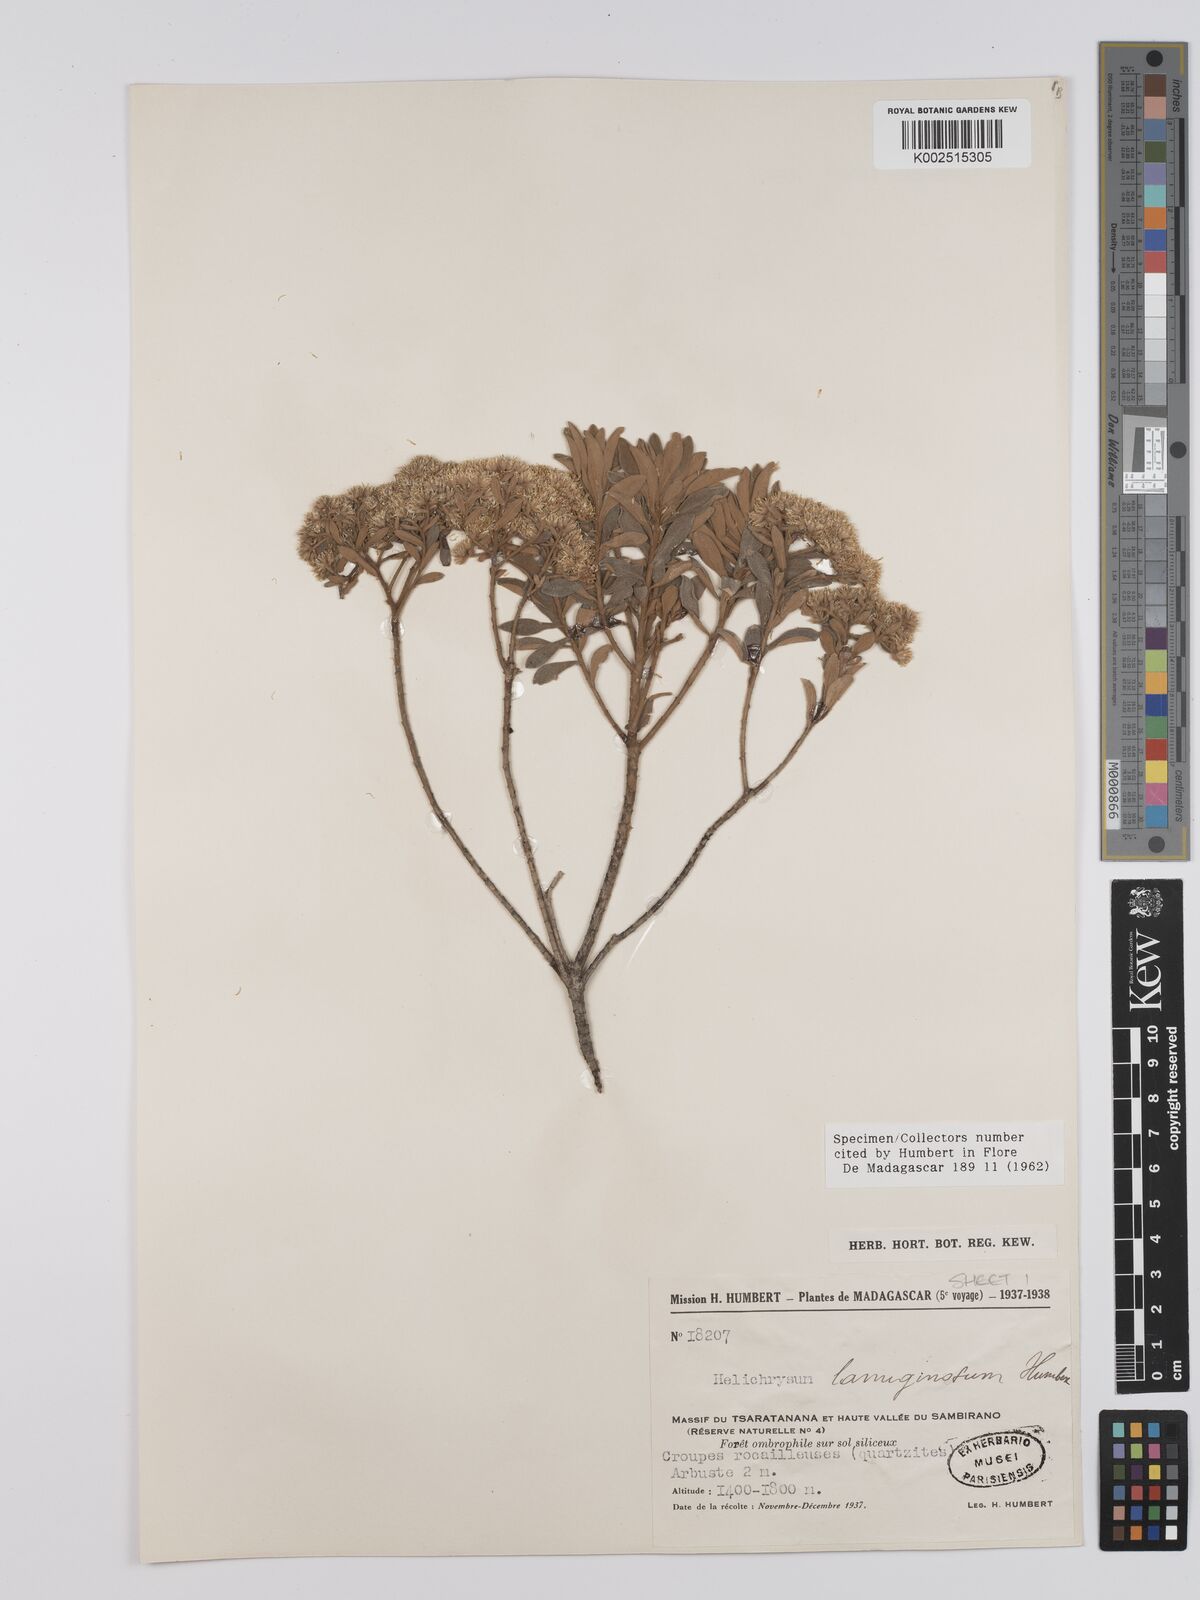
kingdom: Plantae
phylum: Tracheophyta
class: Magnoliopsida
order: Asterales
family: Asteraceae
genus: Helichrysum
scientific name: Helichrysum lanuginosum
